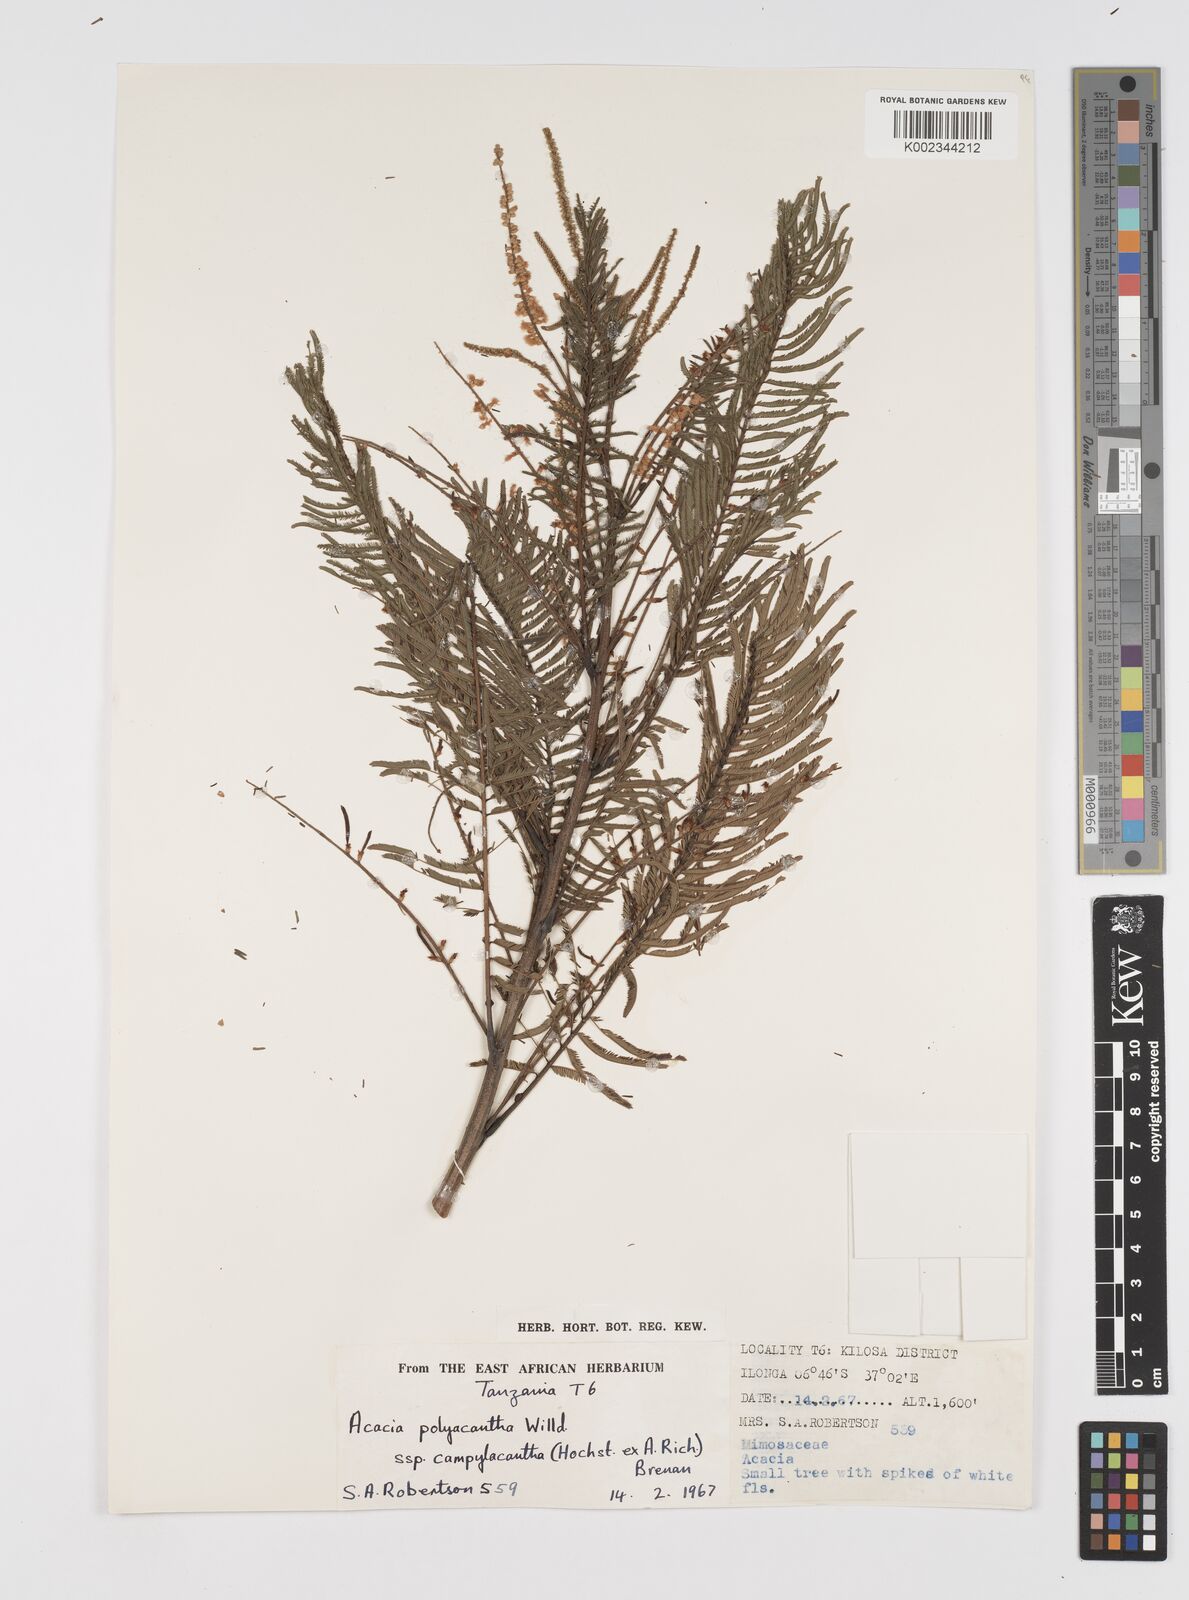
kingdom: Plantae
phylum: Tracheophyta
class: Magnoliopsida
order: Fabales
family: Fabaceae
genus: Senegalia
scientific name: Senegalia polyacantha
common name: Whitethorn
